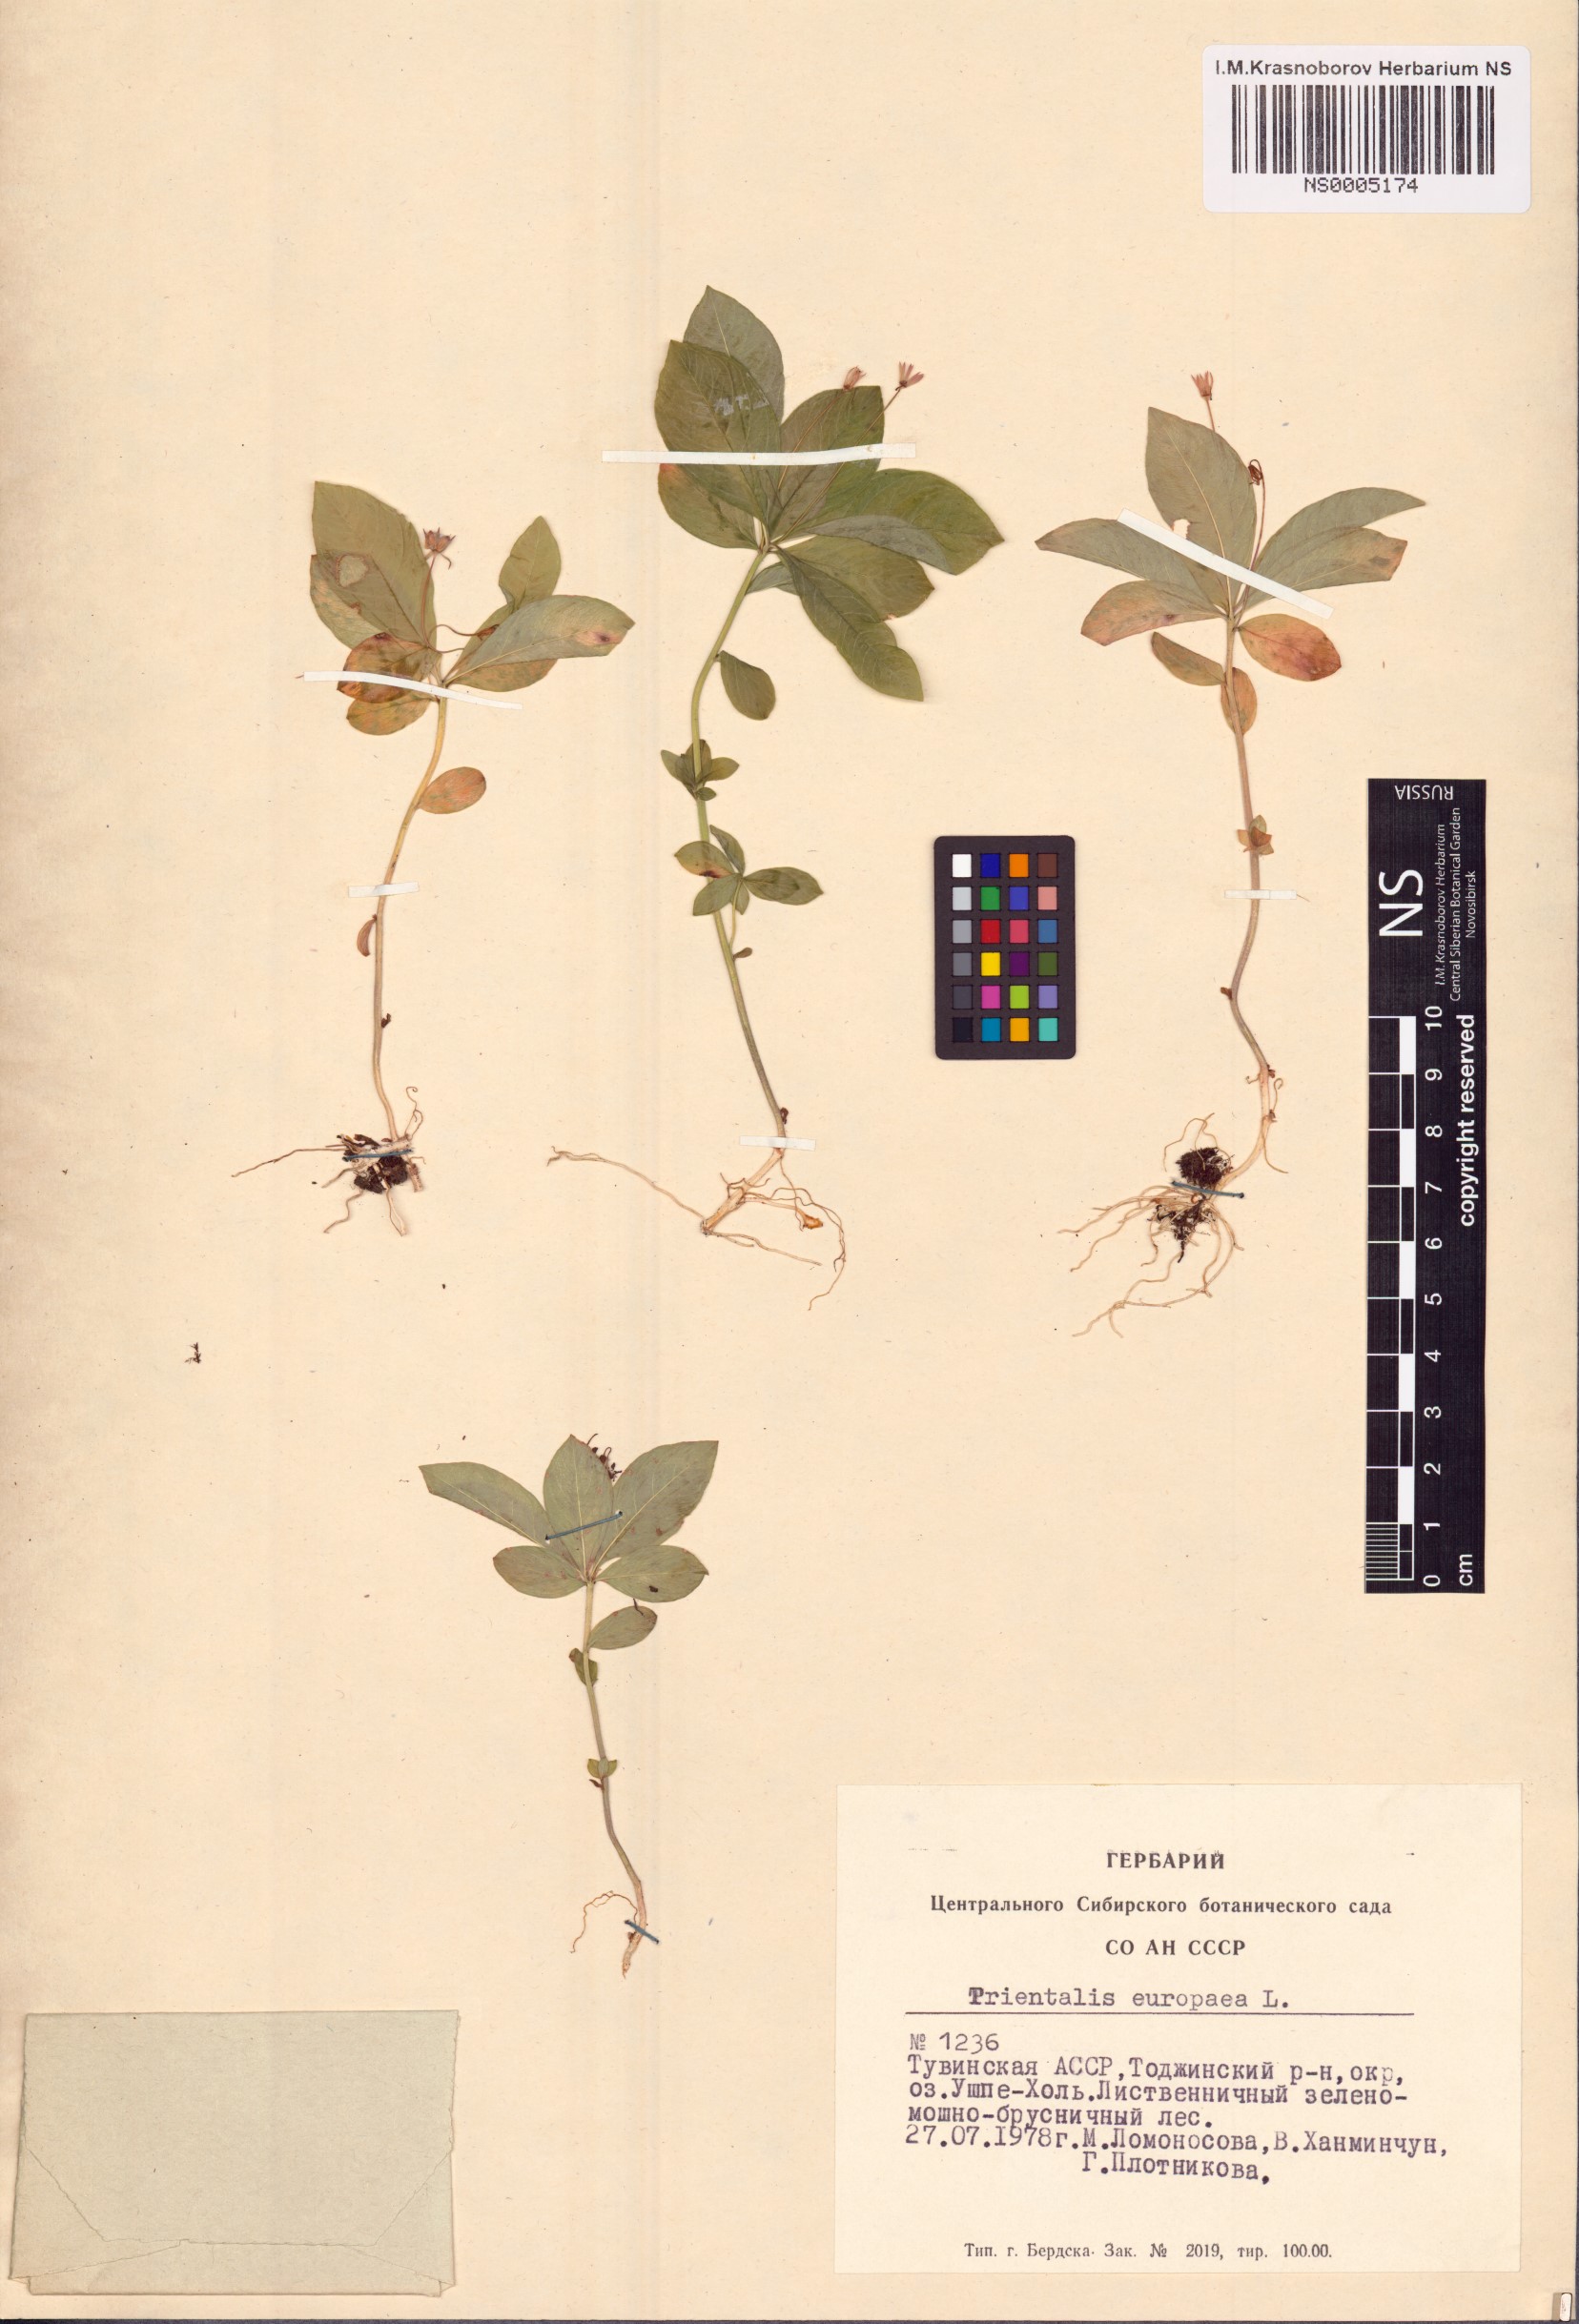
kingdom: Plantae
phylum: Tracheophyta
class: Magnoliopsida
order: Ericales
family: Primulaceae
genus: Lysimachia
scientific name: Lysimachia europaea
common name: Arctic starflower
